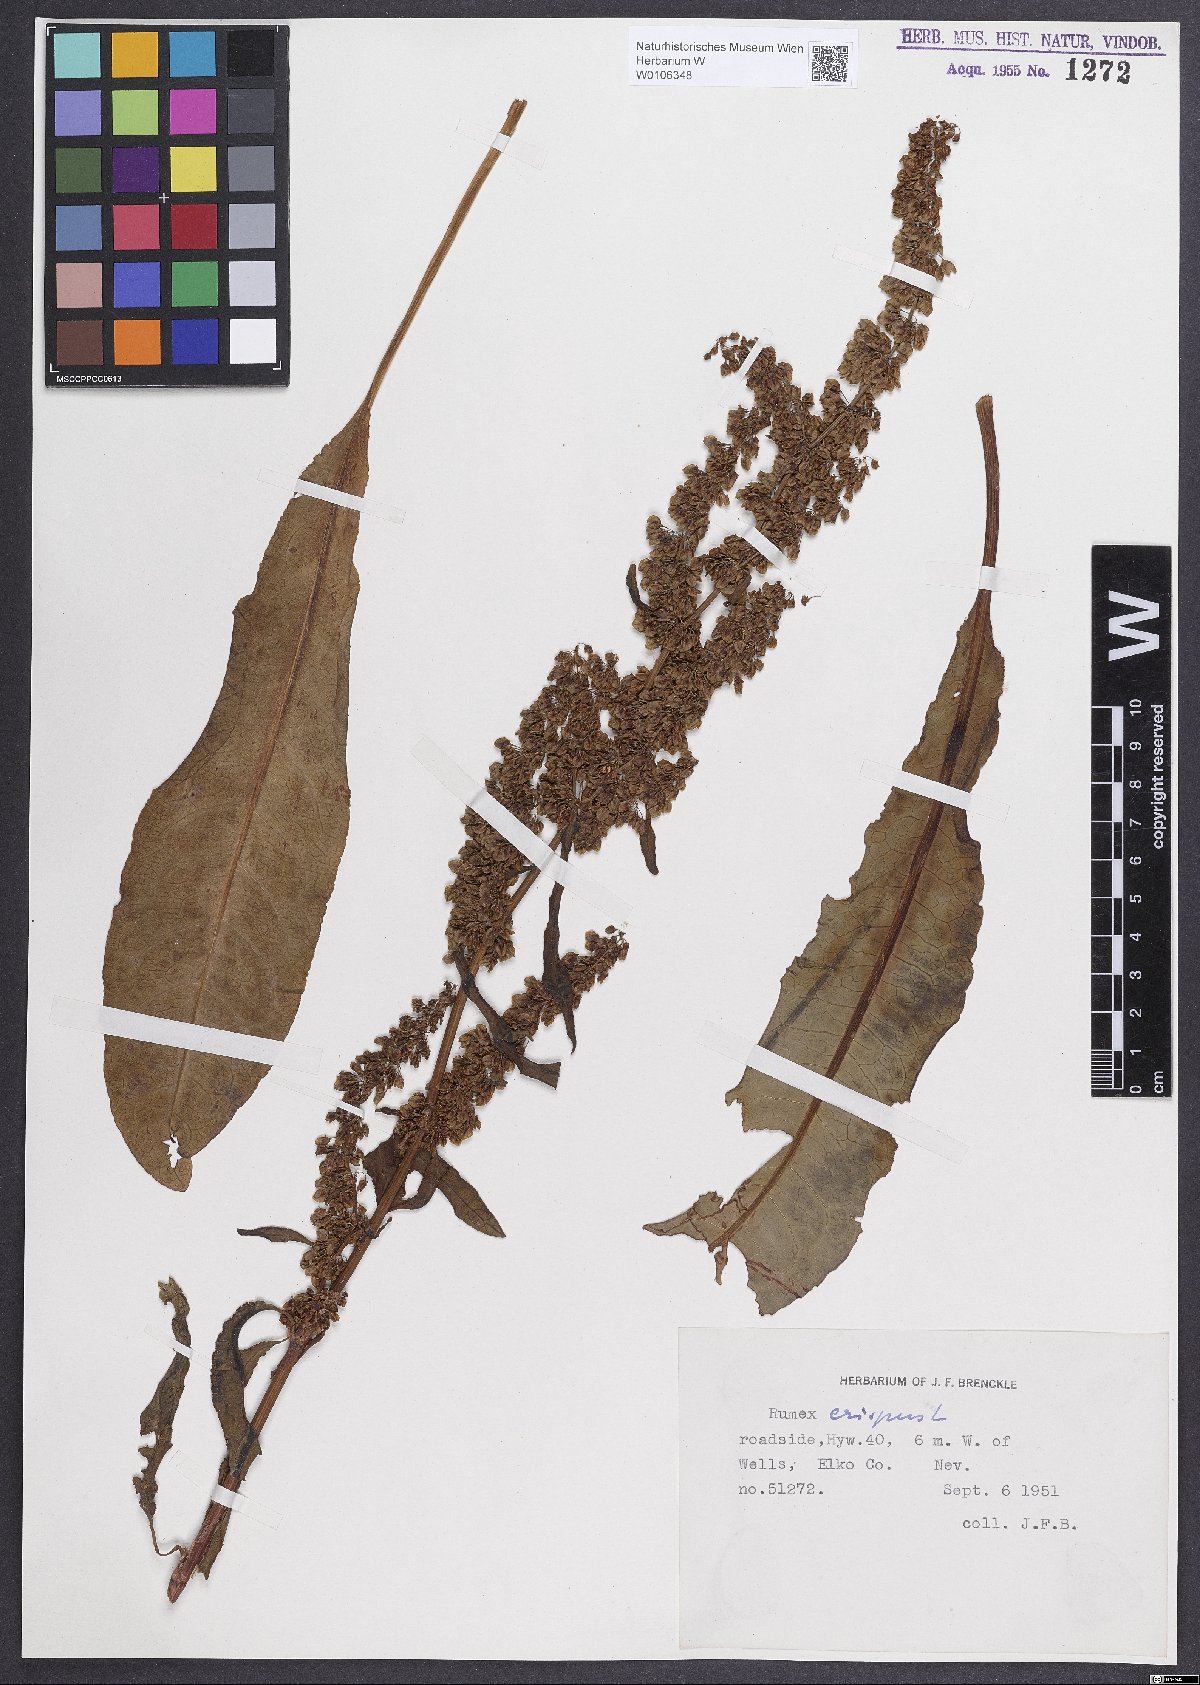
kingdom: Plantae
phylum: Tracheophyta
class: Magnoliopsida
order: Caryophyllales
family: Polygonaceae
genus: Rumex
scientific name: Rumex crispus
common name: Curled dock
